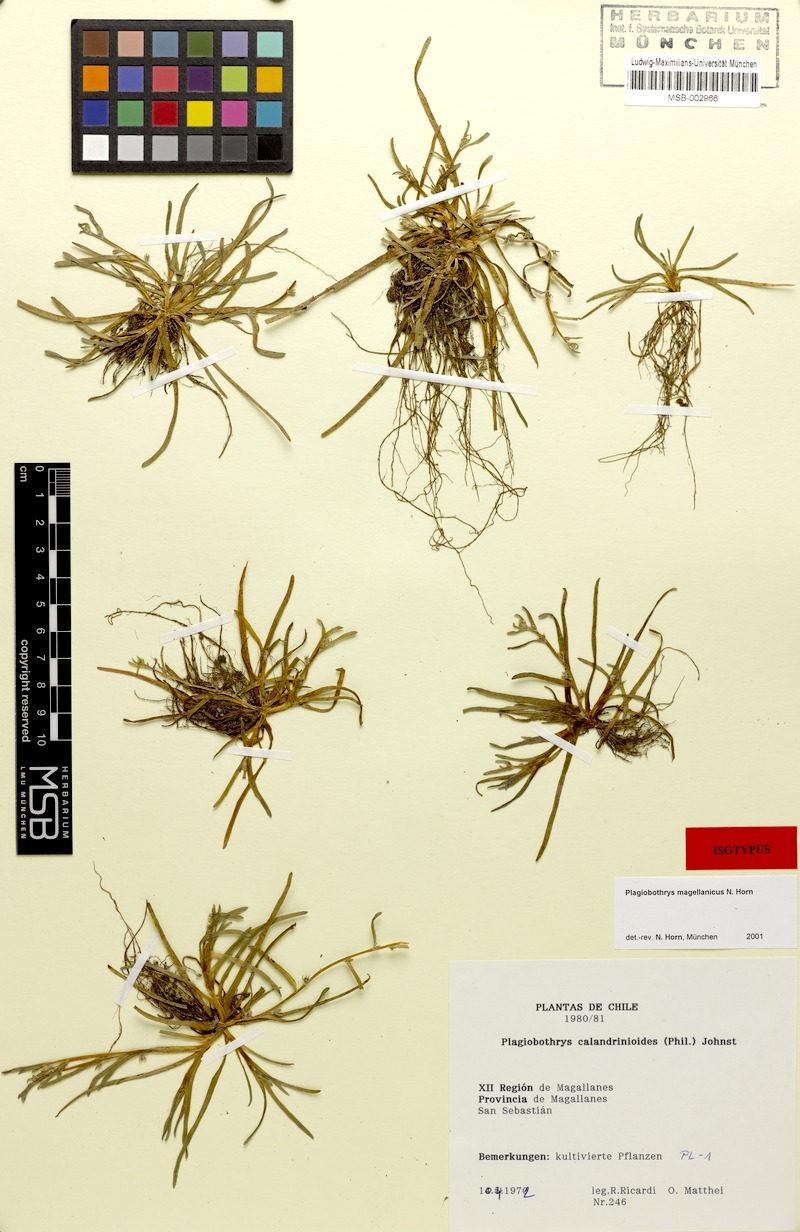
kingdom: Plantae
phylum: Tracheophyta
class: Magnoliopsida
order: Boraginales
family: Boraginaceae
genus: Plagiobothrys
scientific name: Plagiobothrys
